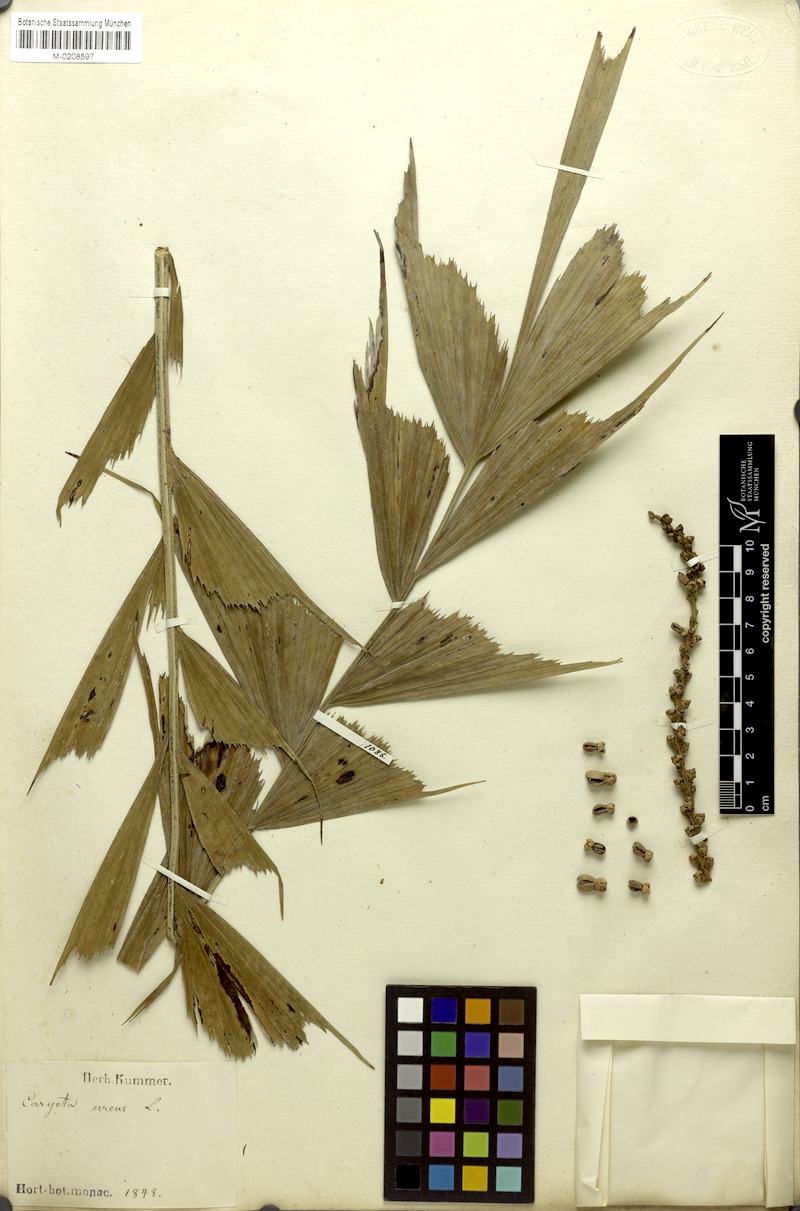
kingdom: Plantae
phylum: Tracheophyta
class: Liliopsida
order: Arecales
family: Arecaceae
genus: Caryota
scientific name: Caryota urens
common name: Jaggery palm
